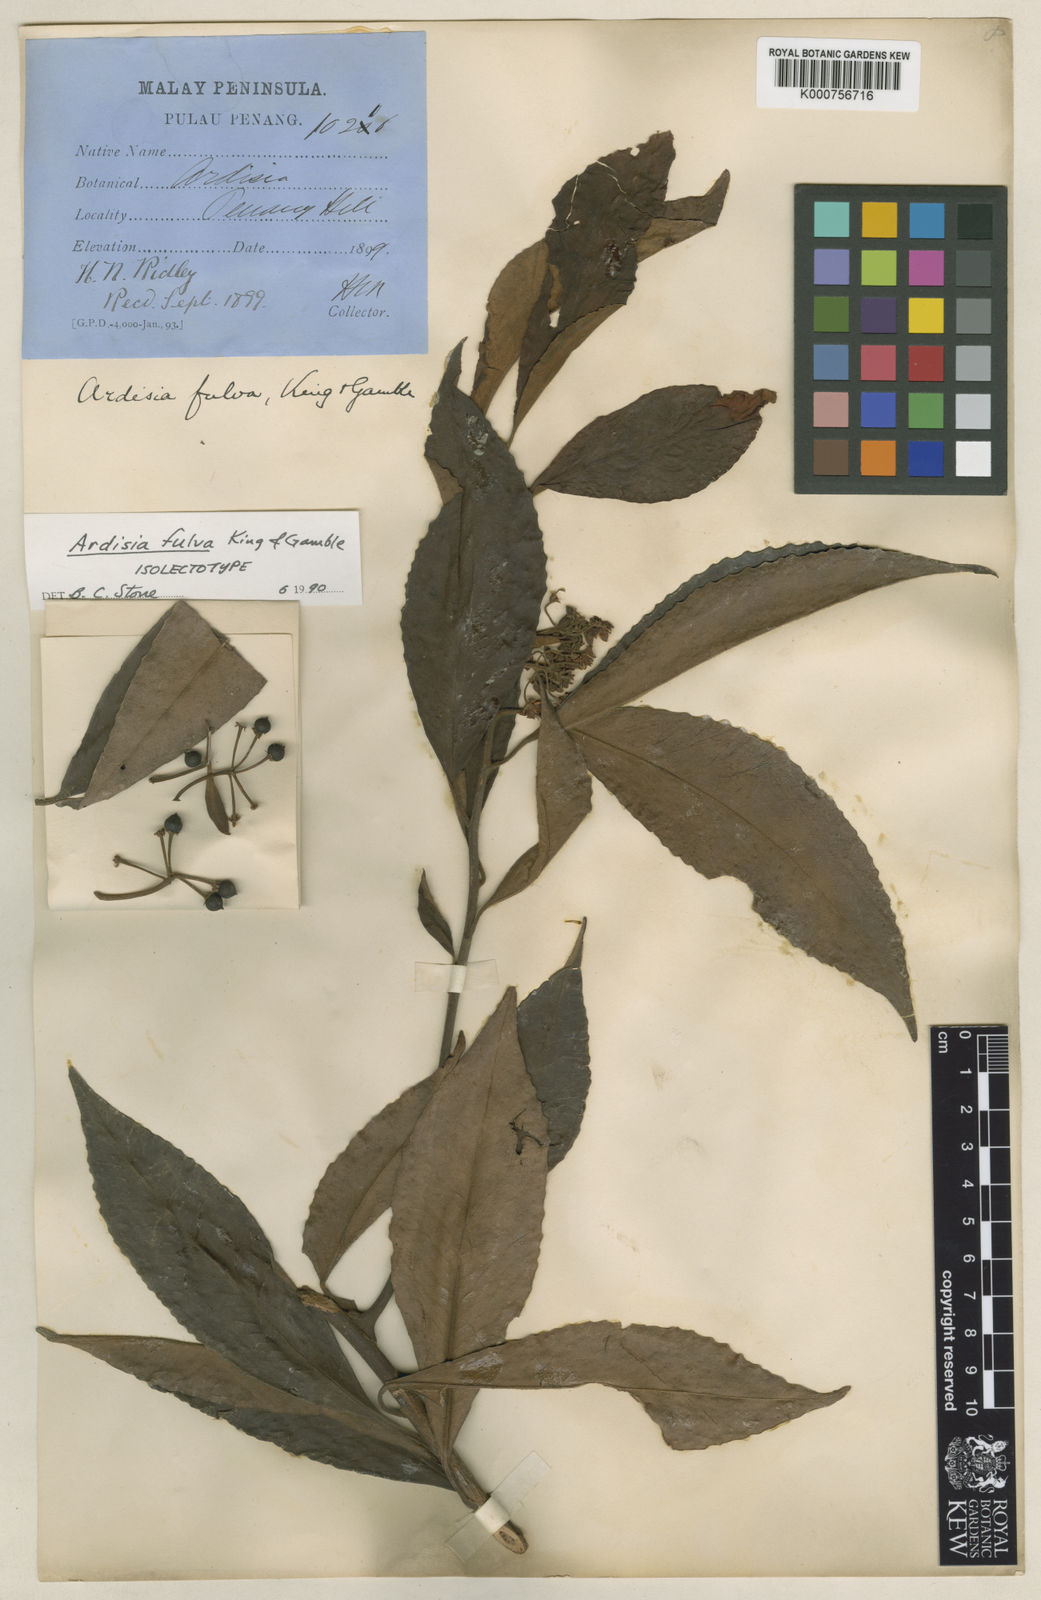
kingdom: Plantae
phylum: Tracheophyta
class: Magnoliopsida
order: Ericales
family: Primulaceae
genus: Ardisia
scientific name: Ardisia fulva
